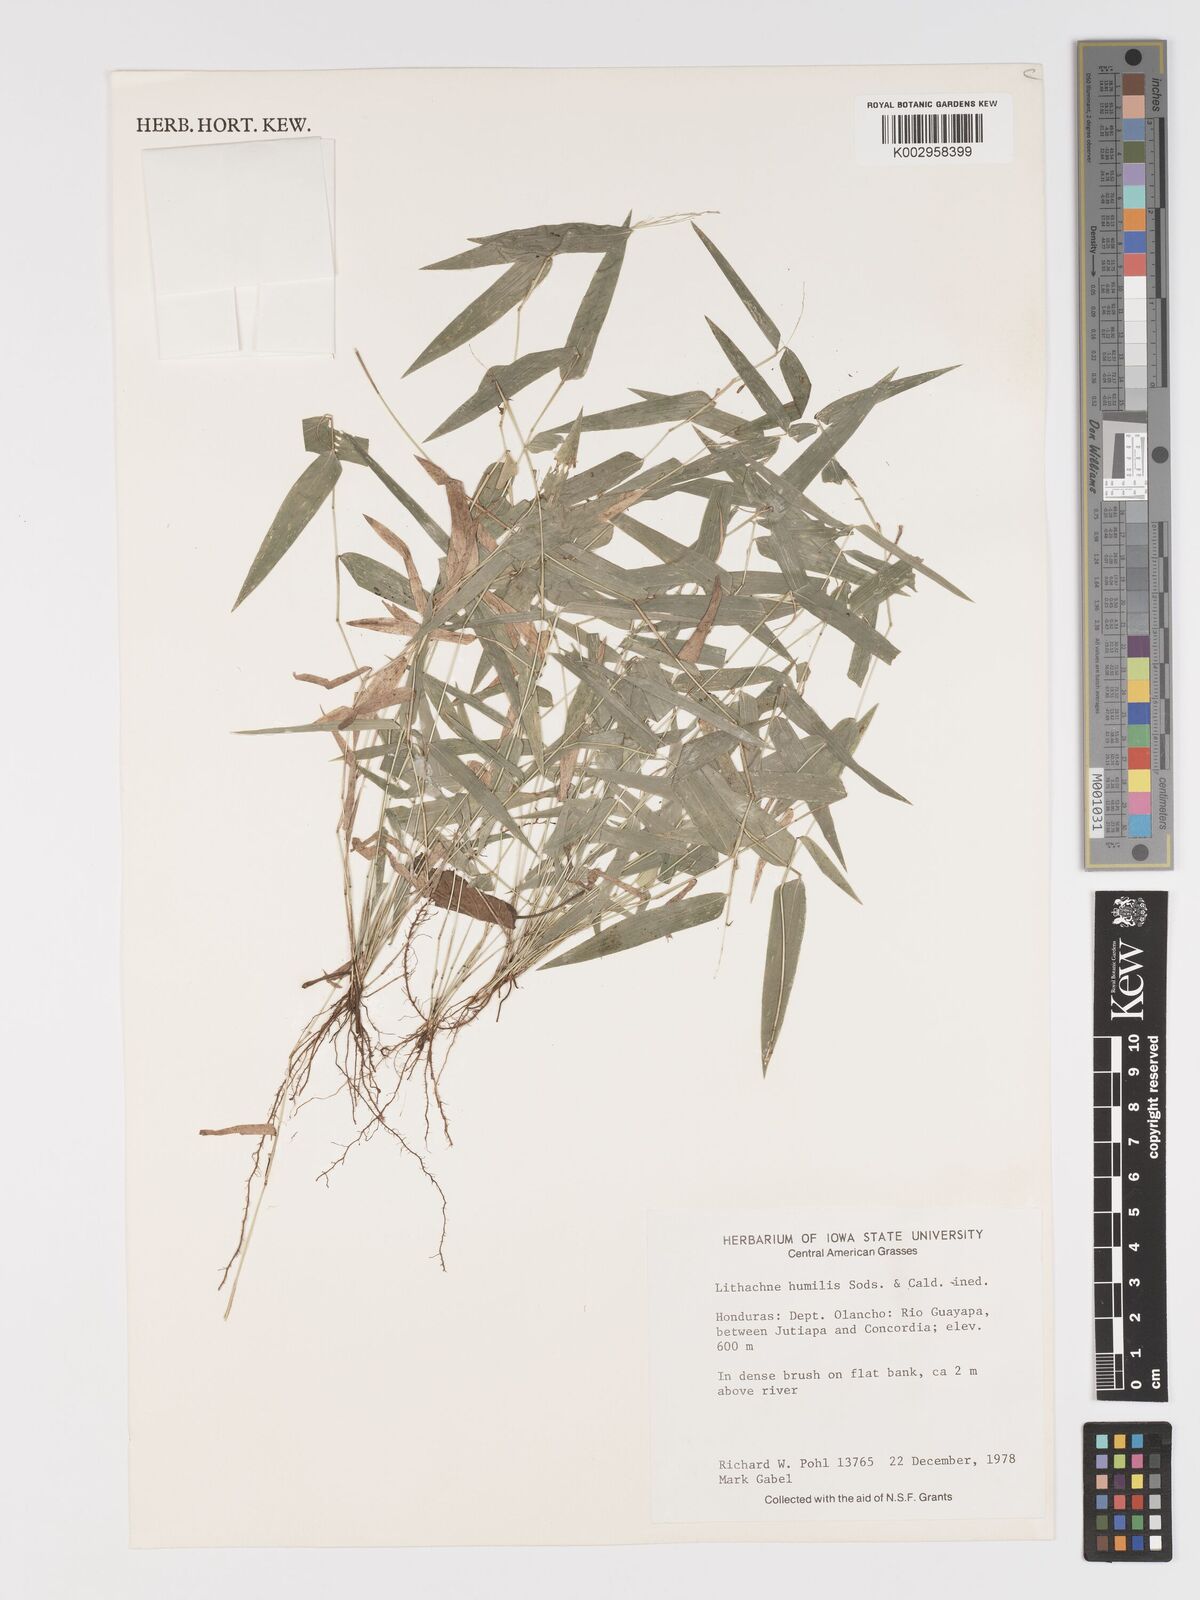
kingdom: Plantae
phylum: Tracheophyta
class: Liliopsida
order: Poales
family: Poaceae
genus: Lithachne
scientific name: Lithachne humilis
